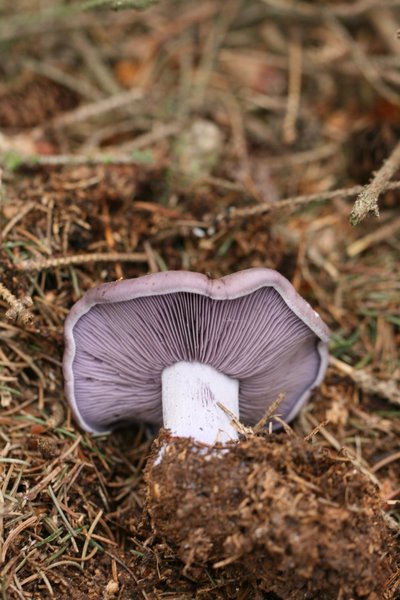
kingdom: Fungi
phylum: Basidiomycota
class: Agaricomycetes
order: Agaricales
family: Tricholomataceae
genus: Lepista
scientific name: Lepista nuda
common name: violet hekseringshat
